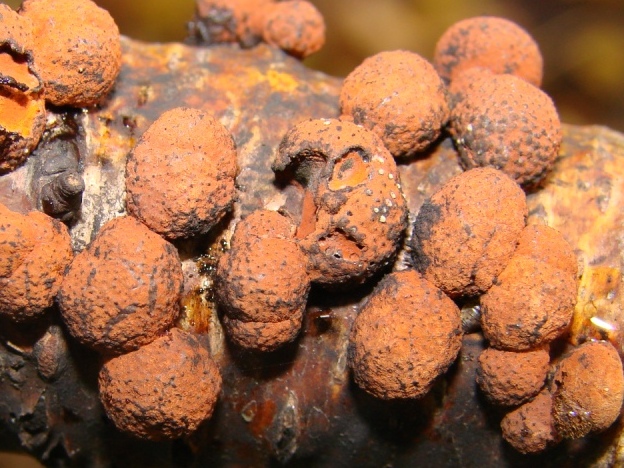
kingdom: Fungi
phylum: Ascomycota
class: Sordariomycetes
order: Xylariales
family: Hypoxylaceae
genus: Hypoxylon
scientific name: Hypoxylon howeanum
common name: halvkugleformet kulbær
